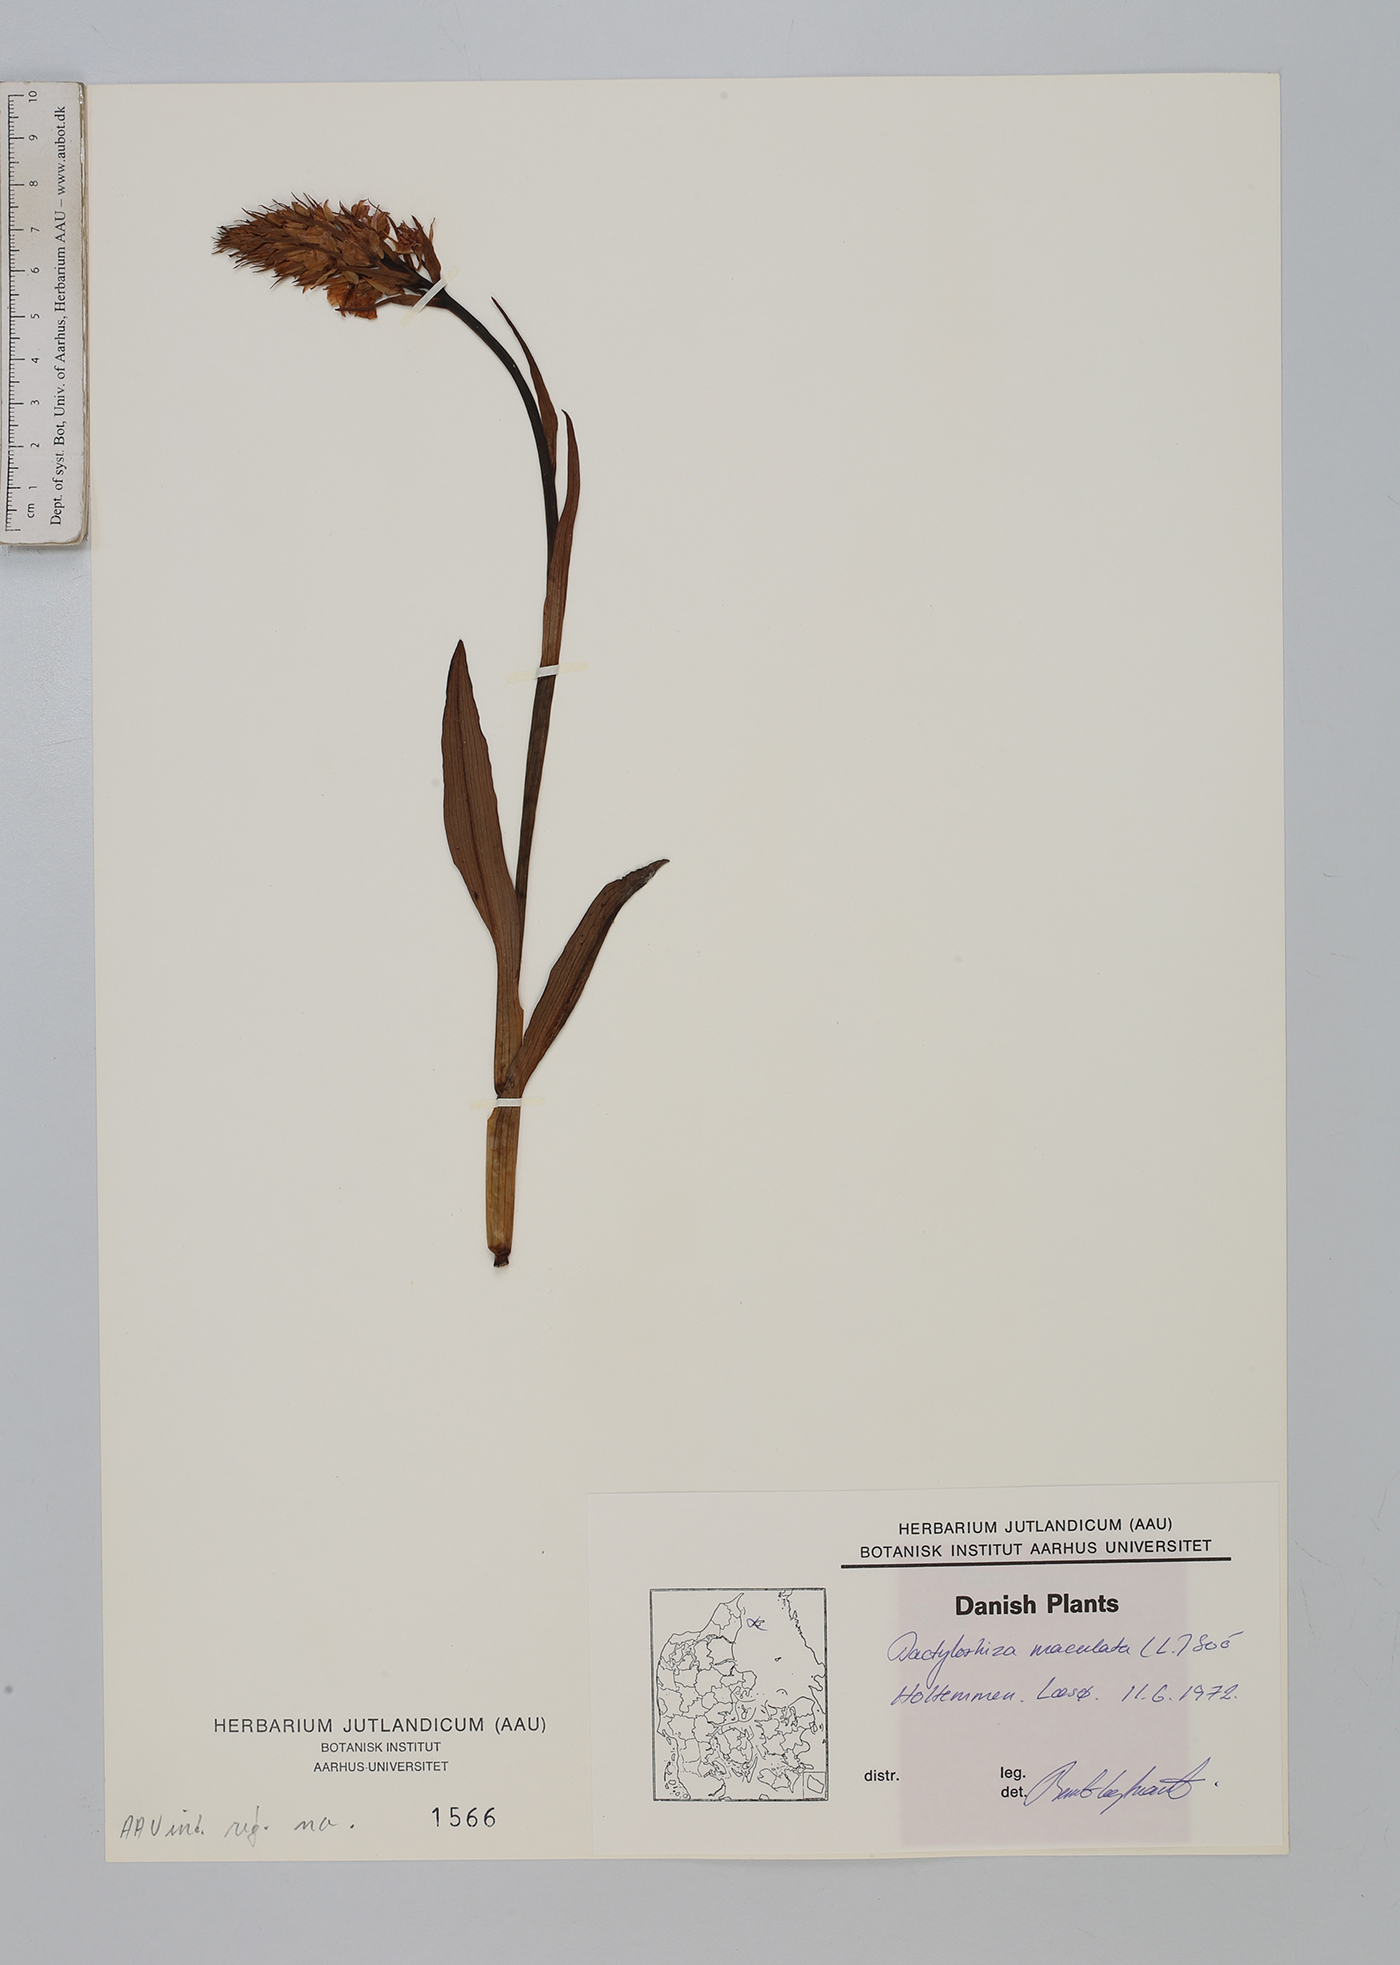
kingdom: Plantae
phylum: Tracheophyta
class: Liliopsida
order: Asparagales
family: Orchidaceae
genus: Dactylorhiza
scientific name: Dactylorhiza maculata
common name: Heath spotted-orchid
